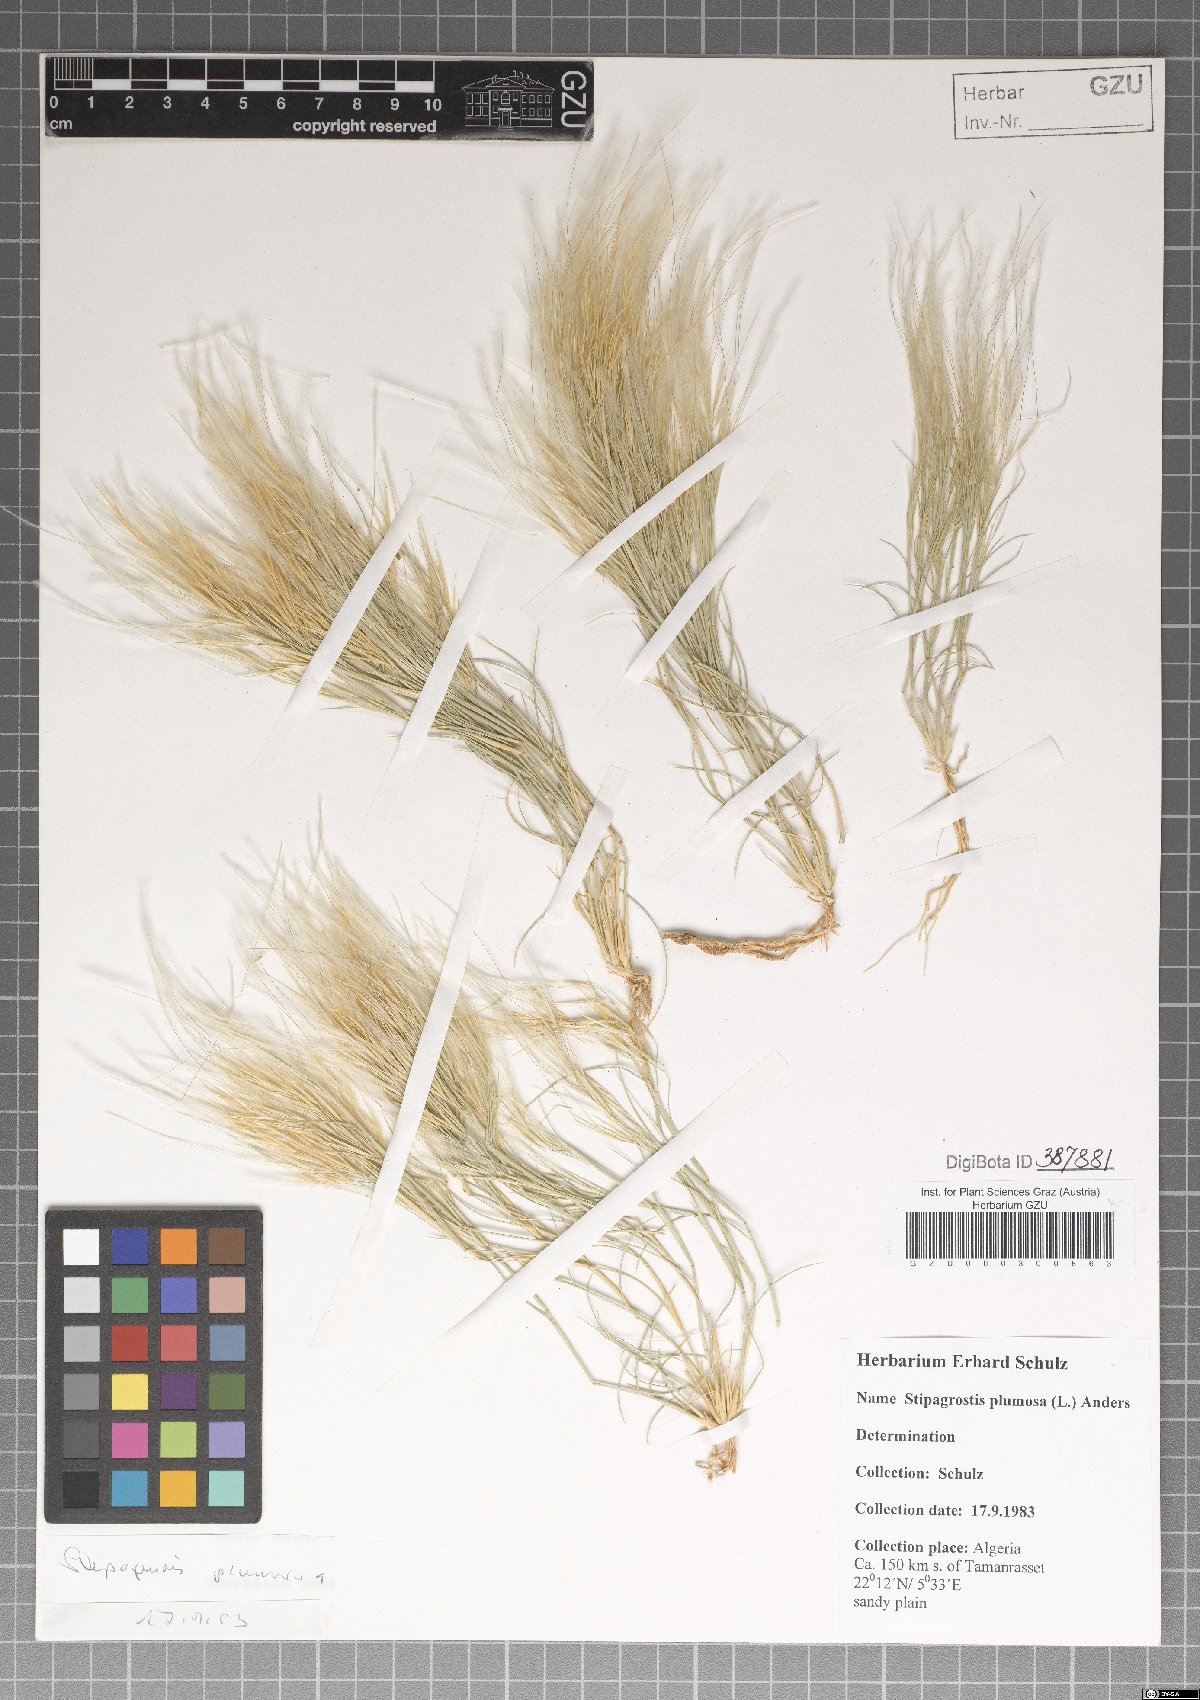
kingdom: Plantae
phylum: Tracheophyta
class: Liliopsida
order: Poales
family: Poaceae
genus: Stipagrostis
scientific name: Stipagrostis plumosa
